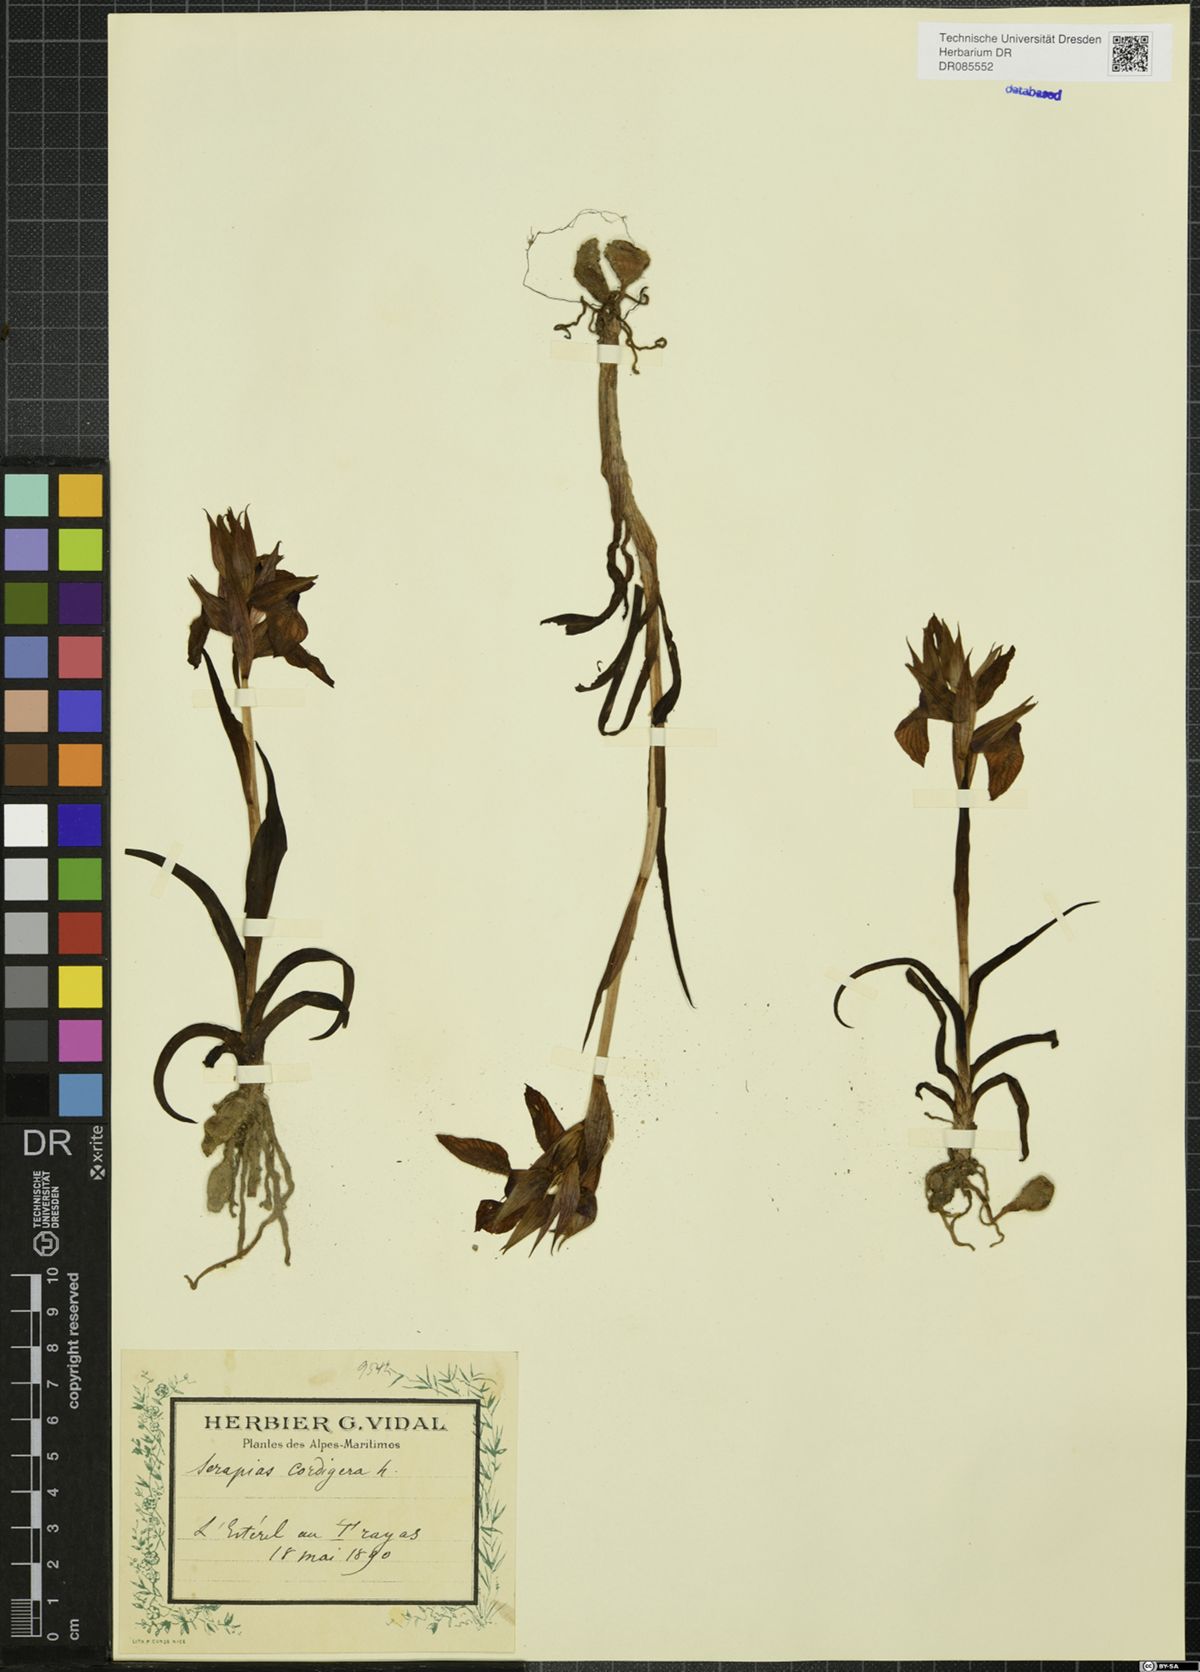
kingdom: Plantae
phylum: Tracheophyta
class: Liliopsida
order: Asparagales
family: Orchidaceae
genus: Serapias
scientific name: Serapias cordigera
